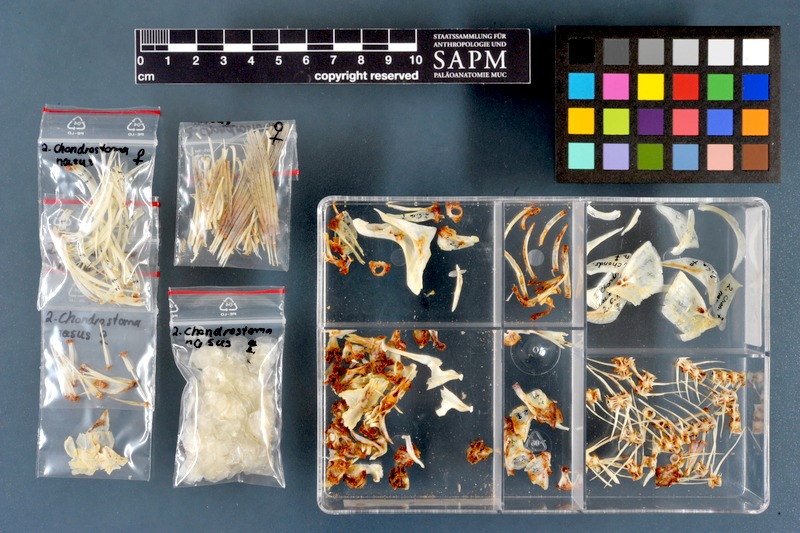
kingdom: Animalia
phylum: Chordata
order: Cypriniformes
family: Cyprinidae
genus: Vimba
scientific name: Vimba vimba
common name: Vimba
